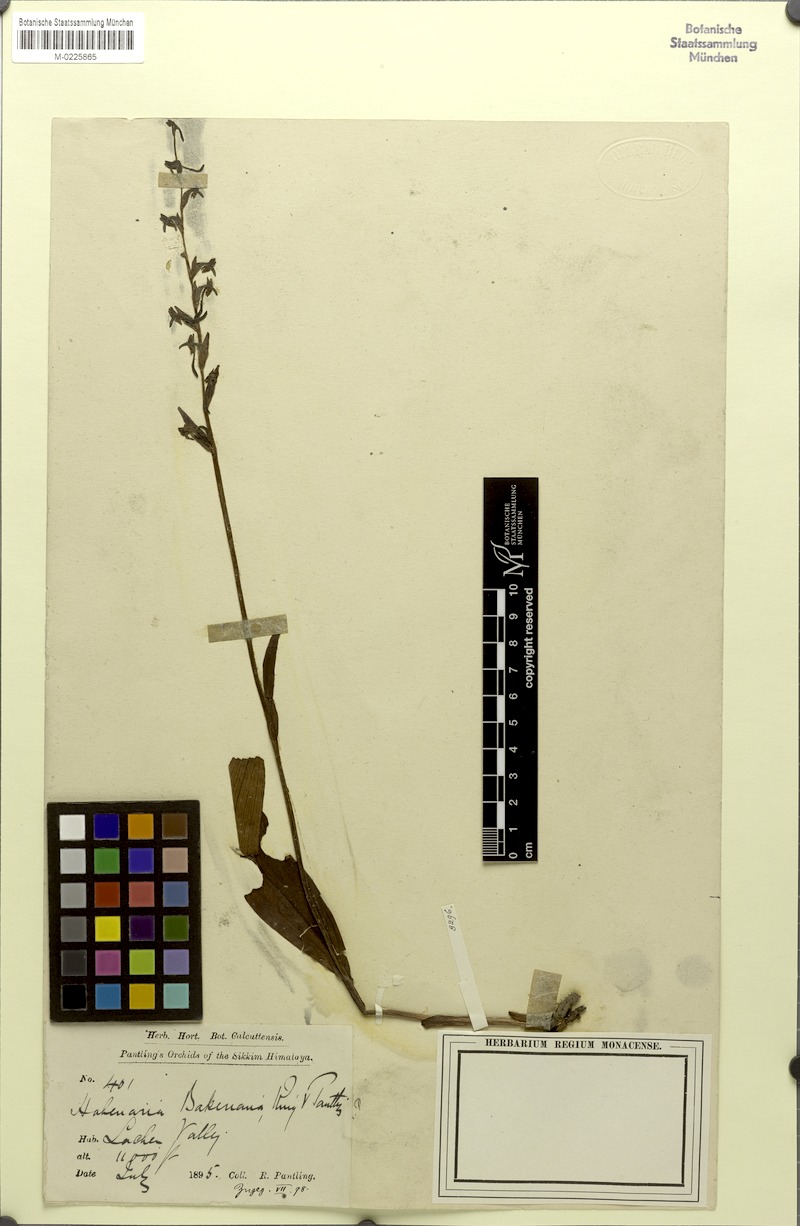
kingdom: Plantae
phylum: Tracheophyta
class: Liliopsida
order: Asparagales
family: Orchidaceae
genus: Platanthera
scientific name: Platanthera bakeriana
